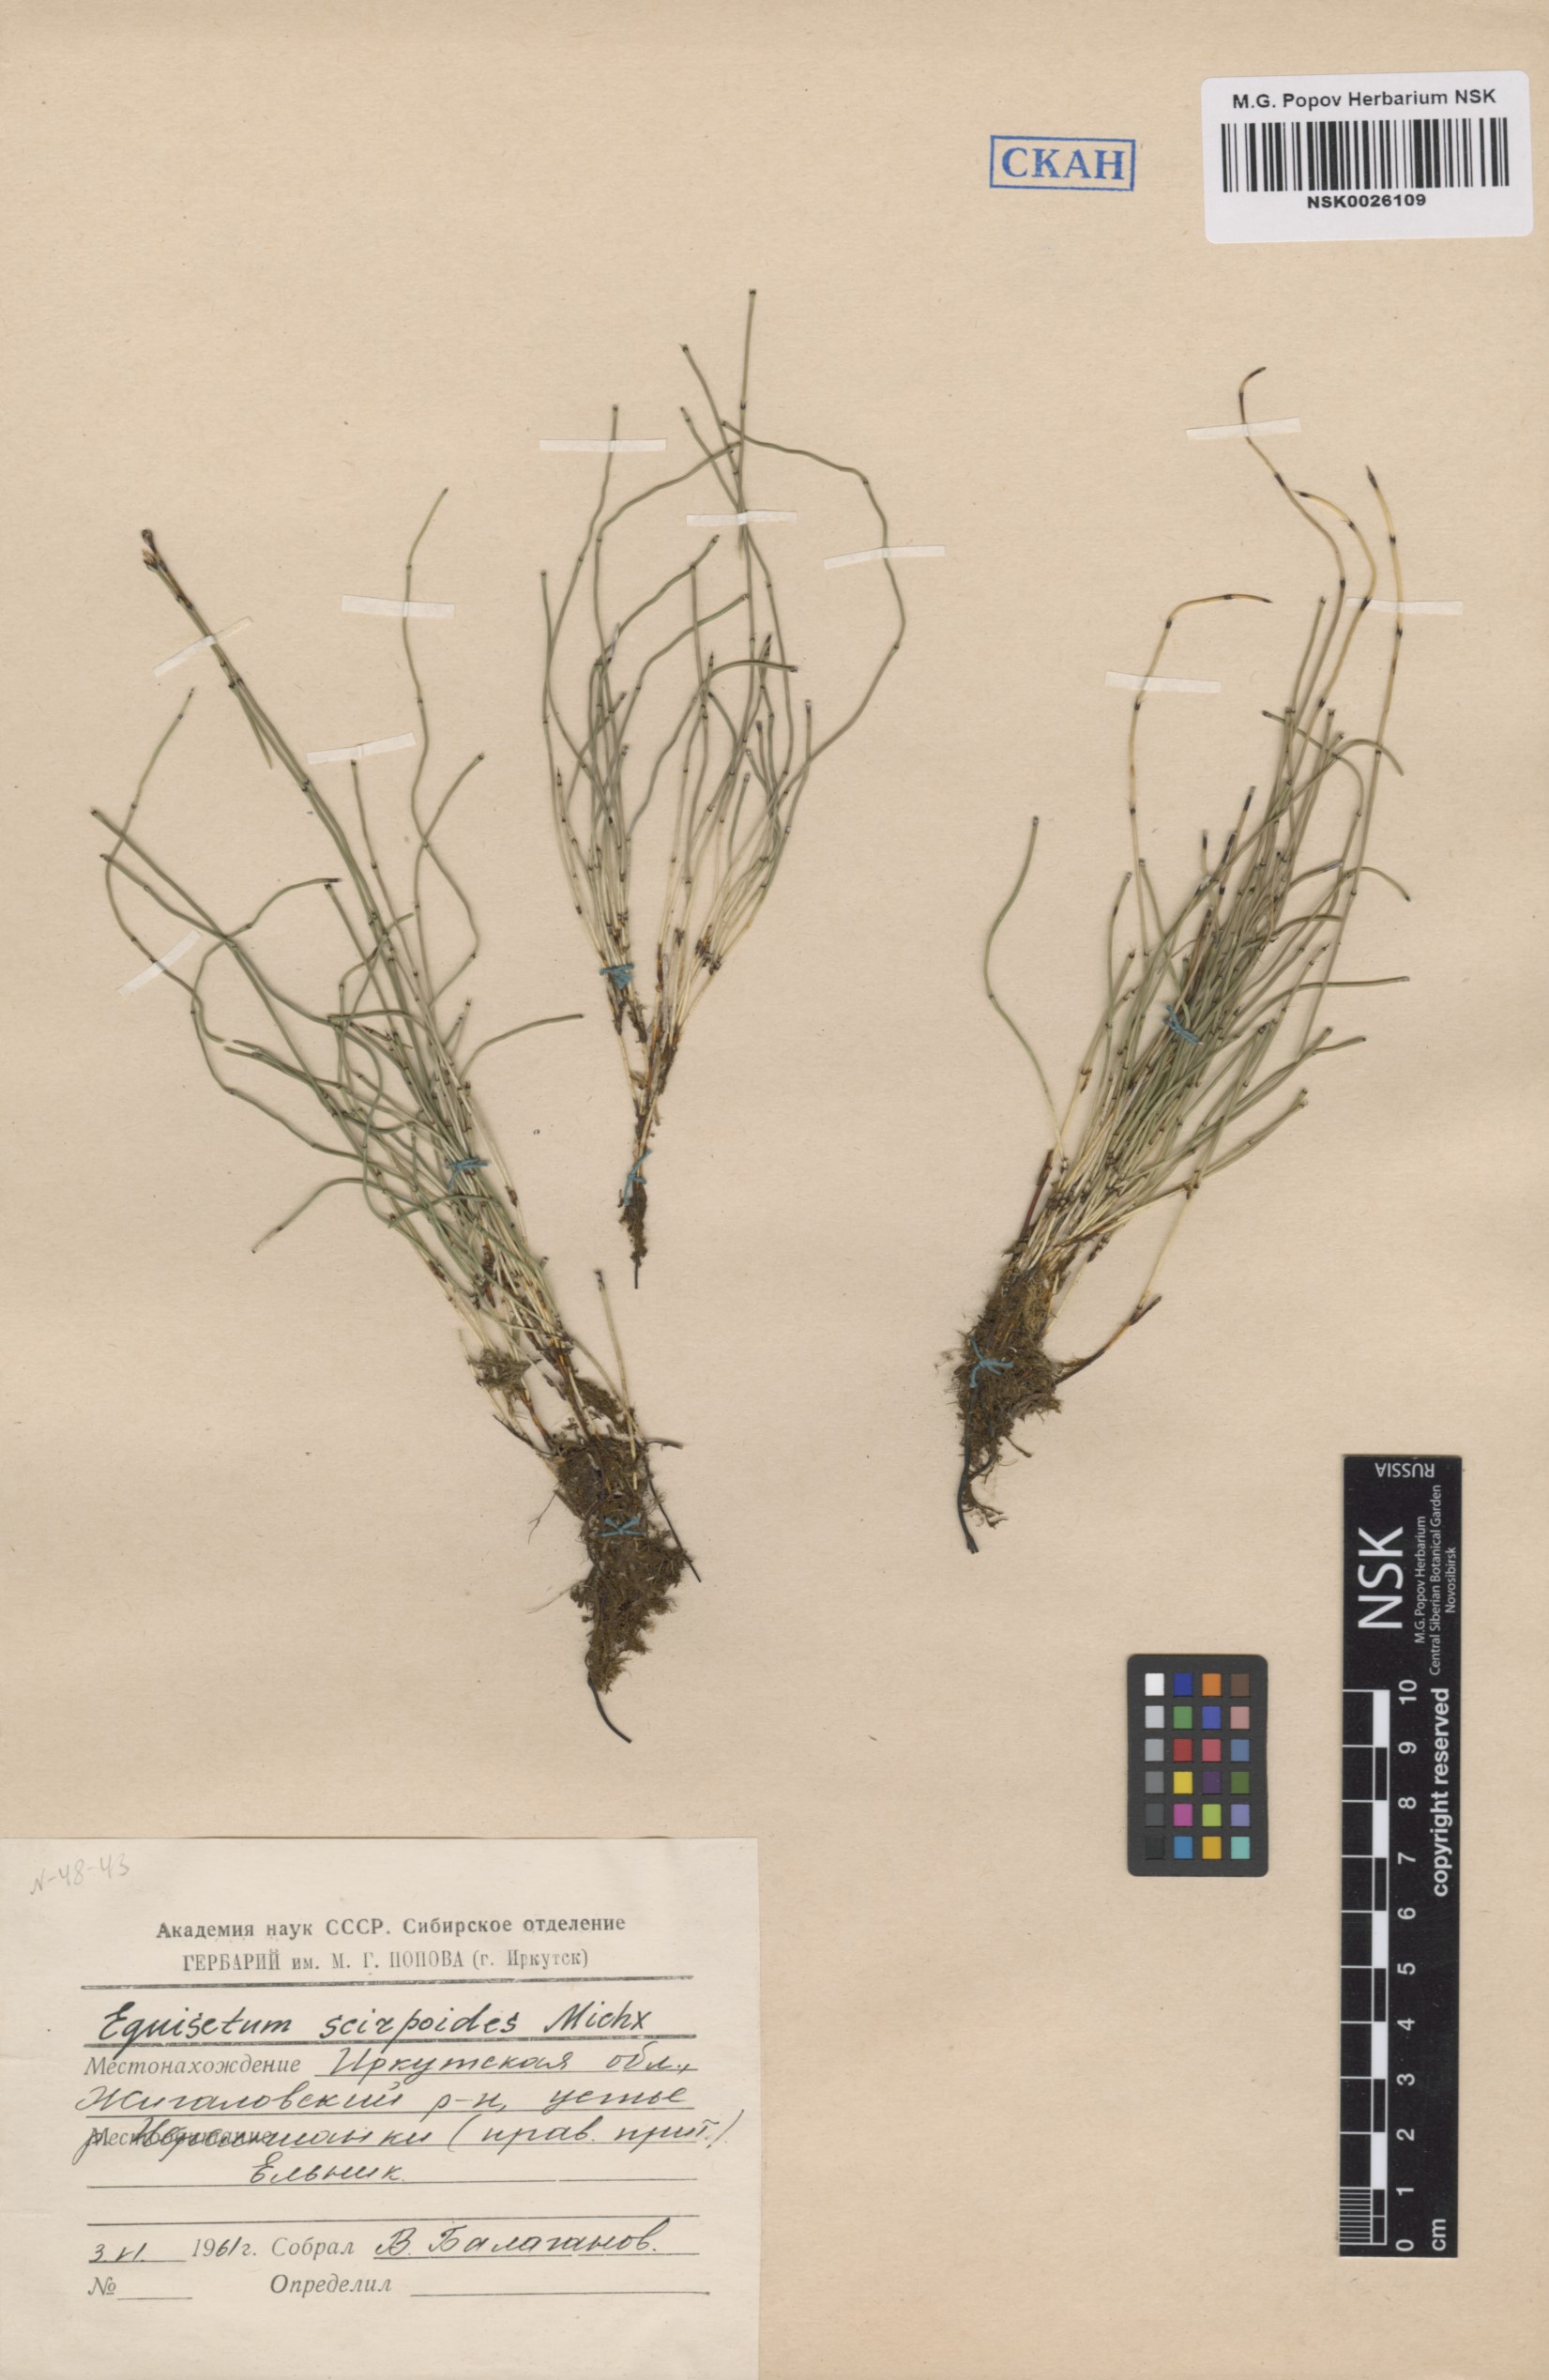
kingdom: Plantae
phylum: Tracheophyta
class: Polypodiopsida
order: Equisetales
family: Equisetaceae
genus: Equisetum
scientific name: Equisetum scirpoides
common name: Delicate horsetail
